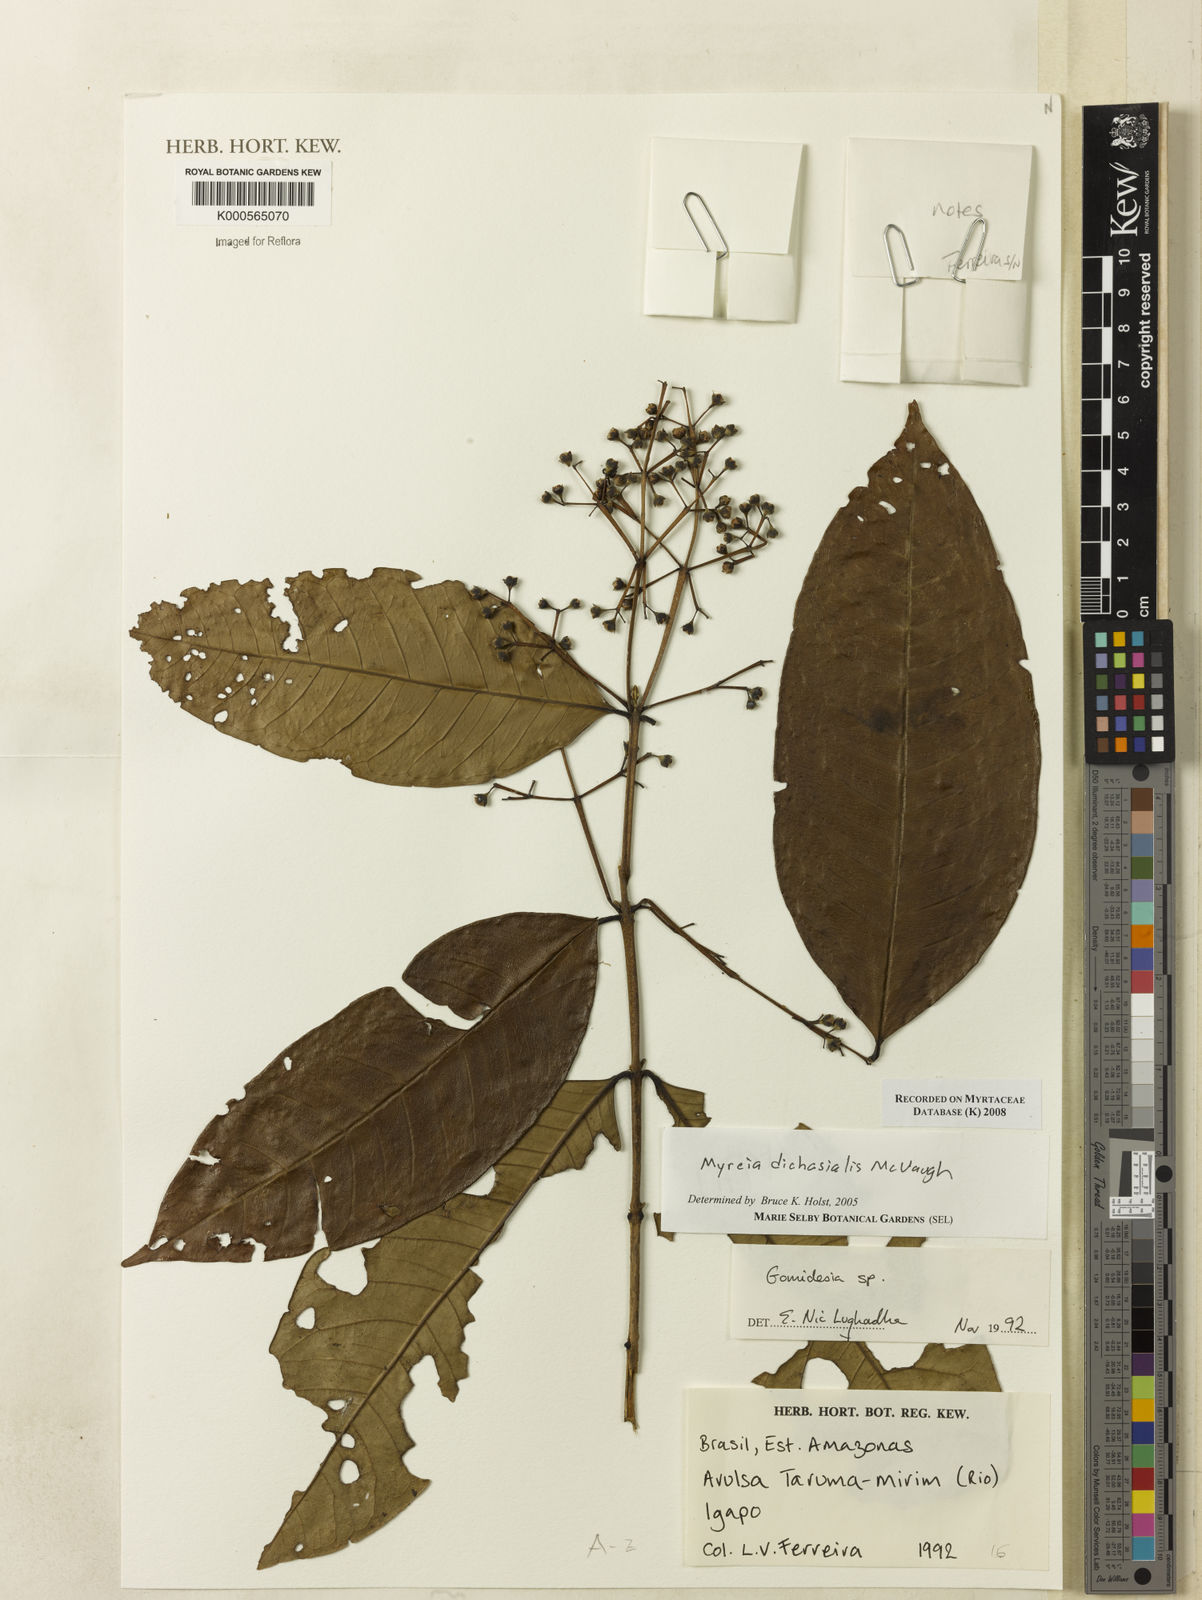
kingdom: Plantae
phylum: Tracheophyta
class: Magnoliopsida
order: Myrtales
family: Myrtaceae
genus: Myrcia
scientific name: Myrcia dichasialis
